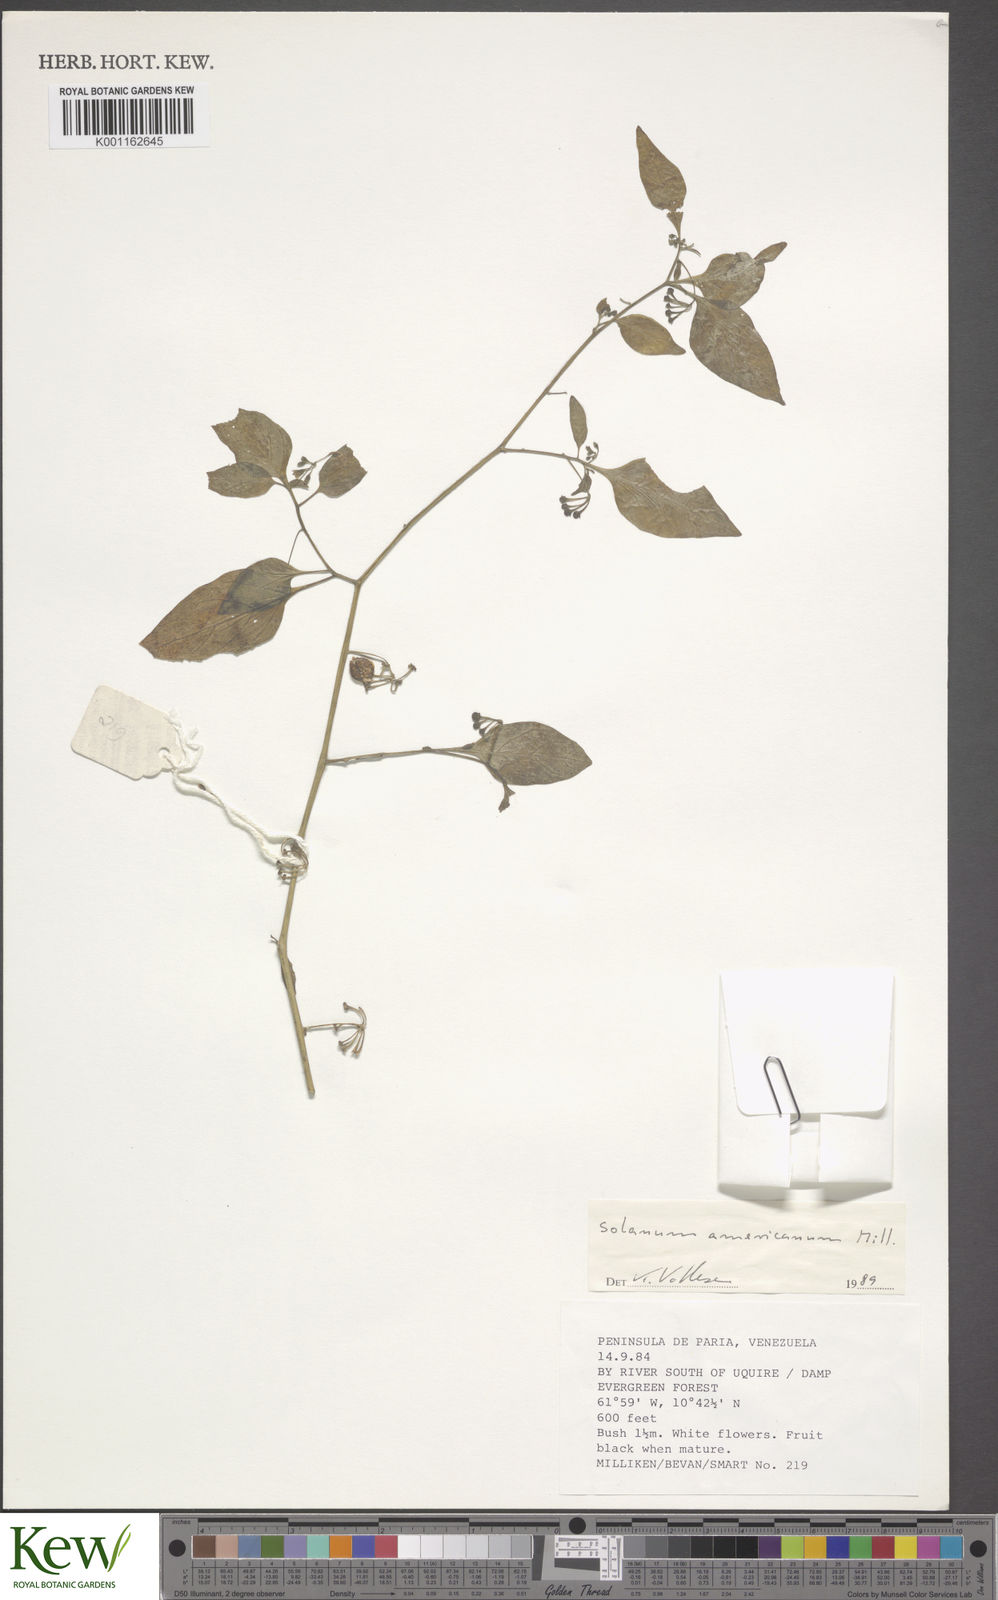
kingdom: Plantae
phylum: Tracheophyta
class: Magnoliopsida
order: Solanales
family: Solanaceae
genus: Solanum
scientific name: Solanum americanum
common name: American black nightshade
